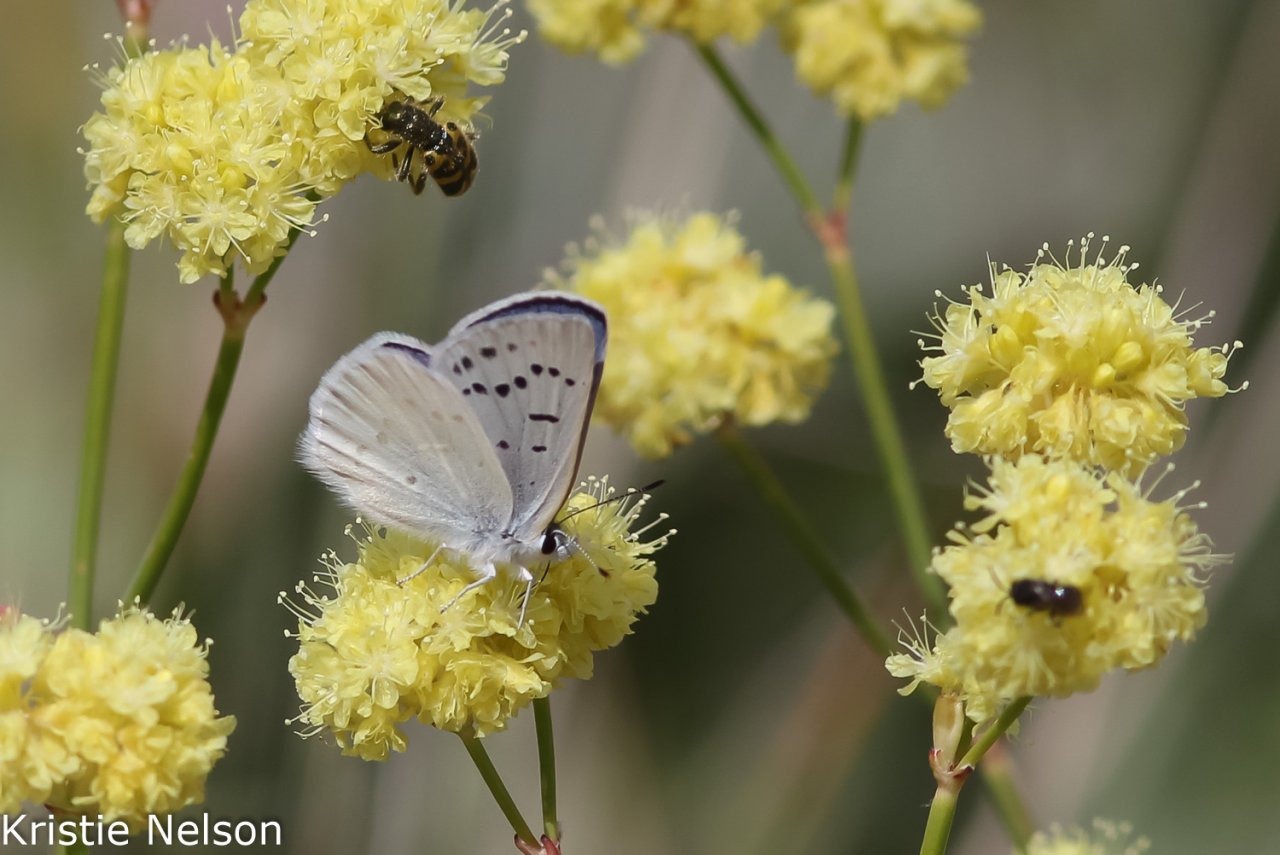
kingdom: Animalia
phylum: Arthropoda
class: Insecta
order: Lepidoptera
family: Lycaenidae
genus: Lycaena
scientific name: Lycaena heteronea
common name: Blue Copper
